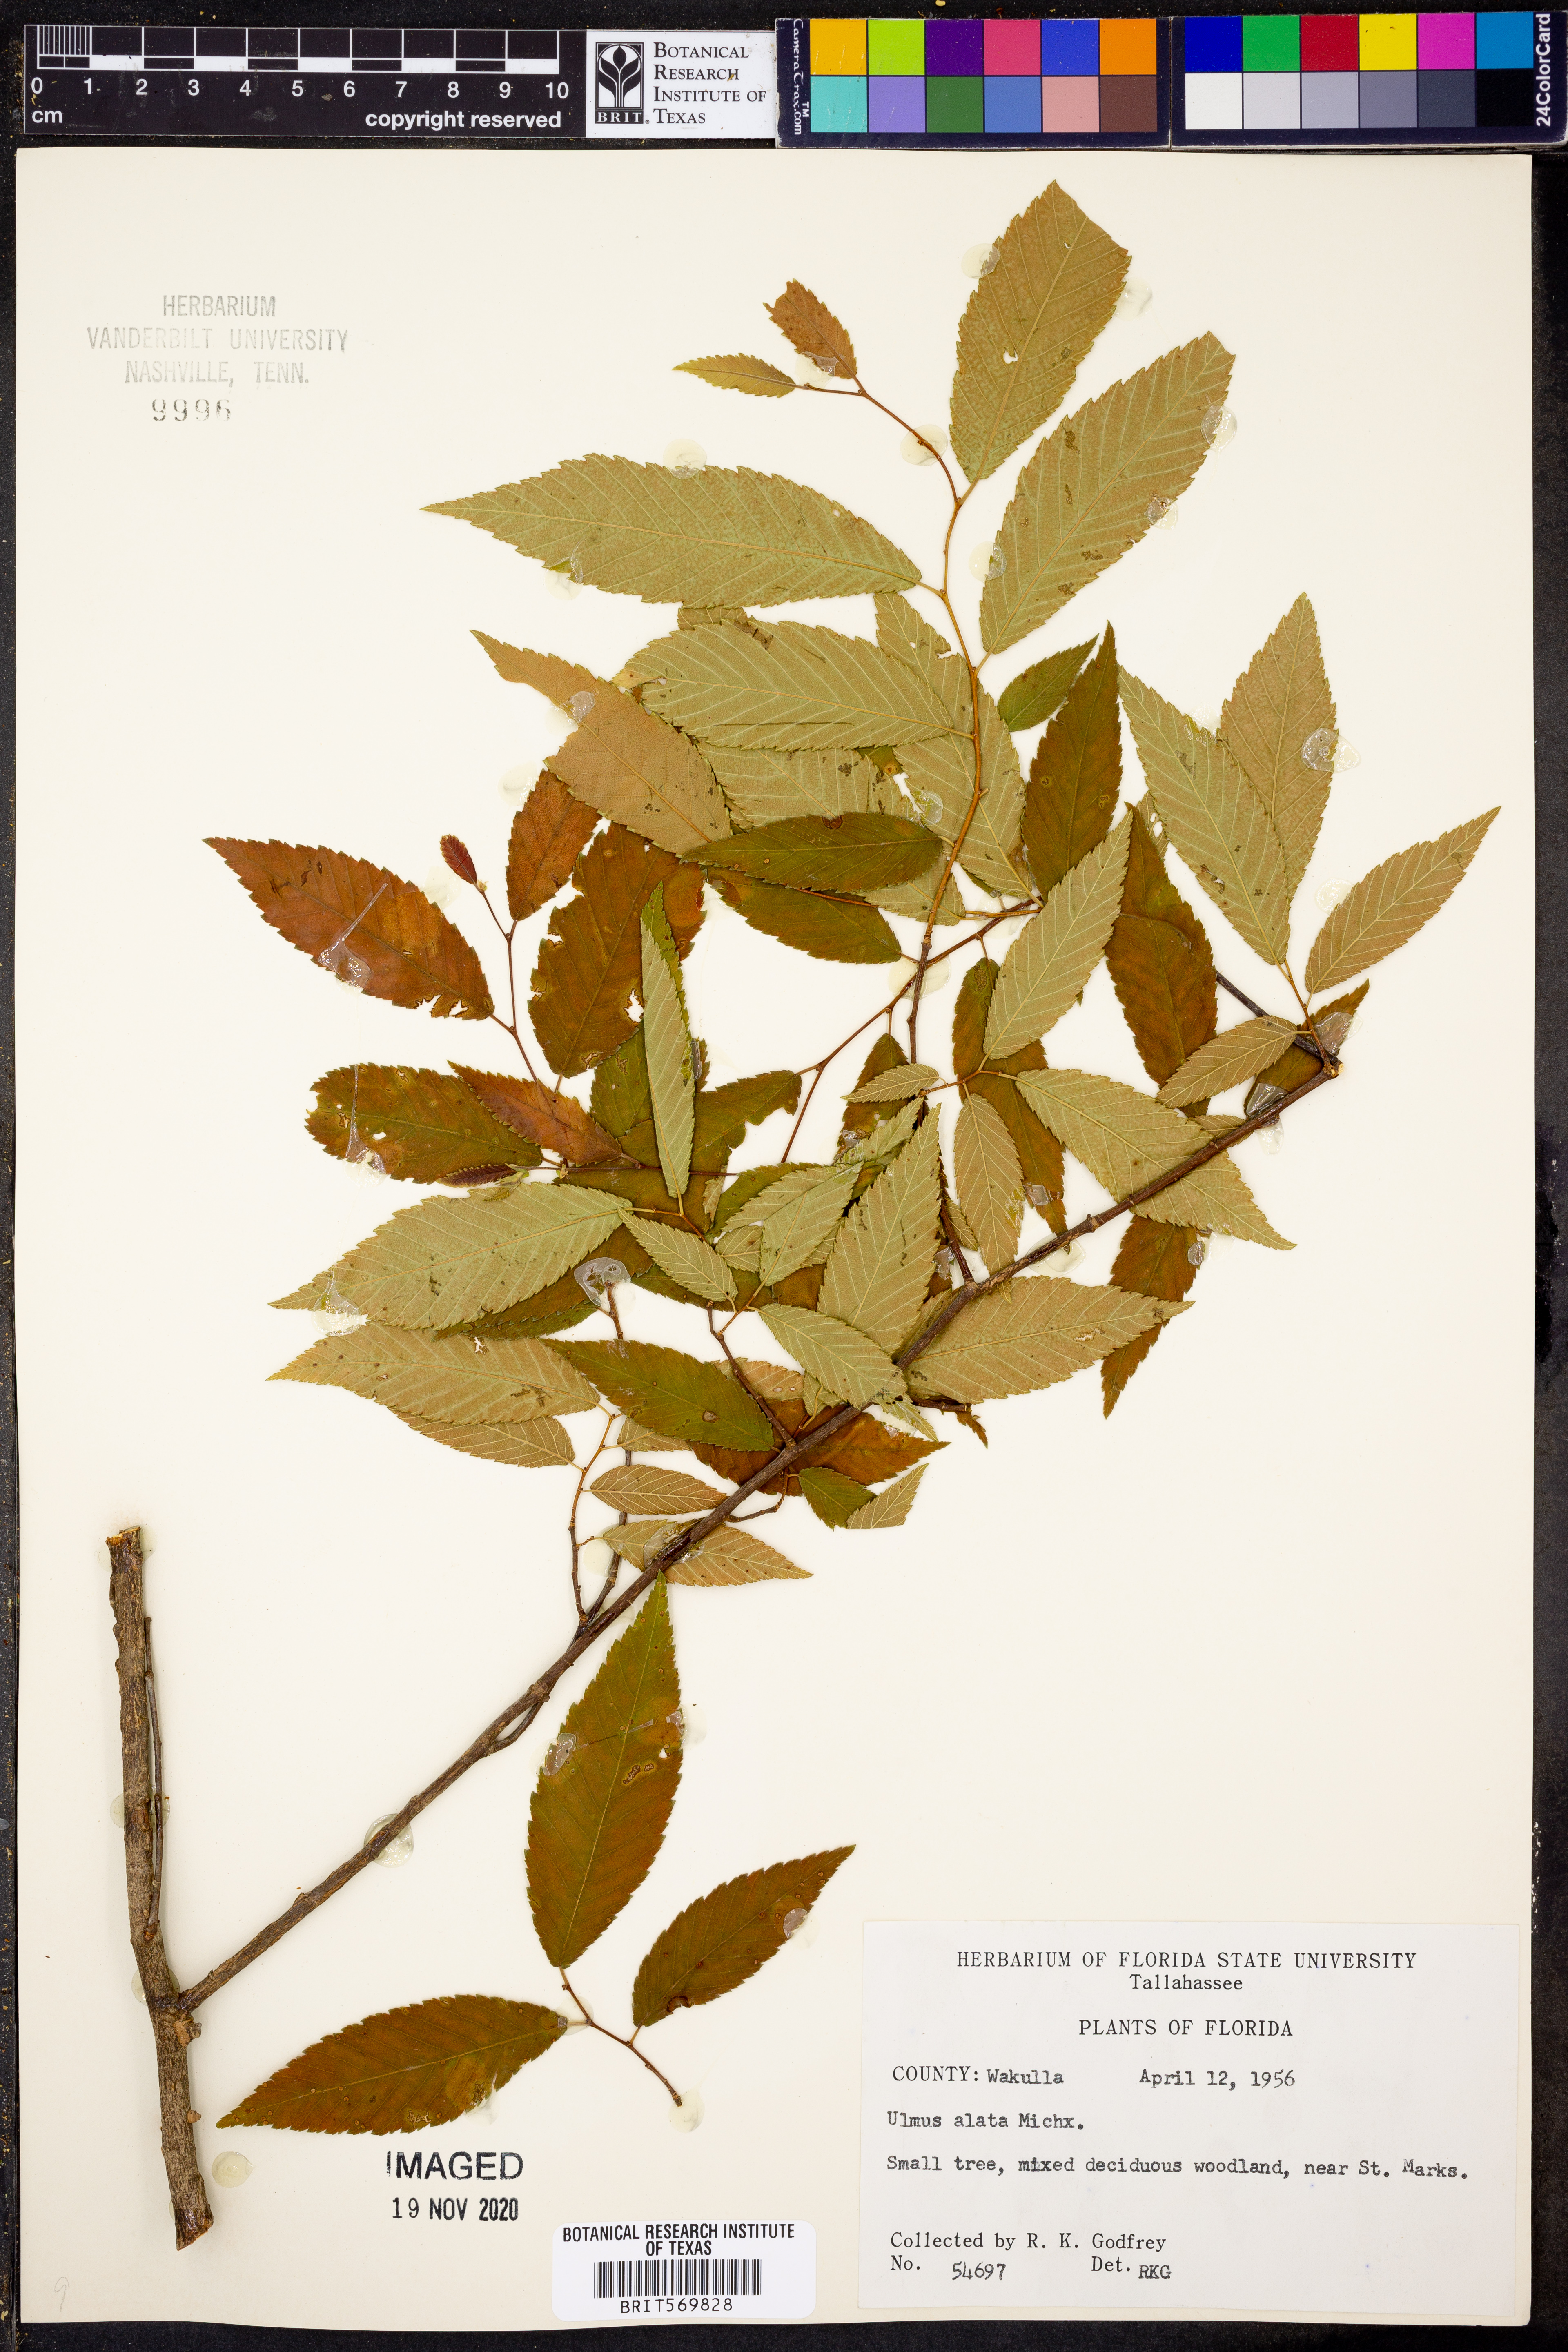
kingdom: Plantae
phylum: Tracheophyta
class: Magnoliopsida
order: Rosales
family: Ulmaceae
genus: Ulmus
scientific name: Ulmus alata
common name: Winged elm
